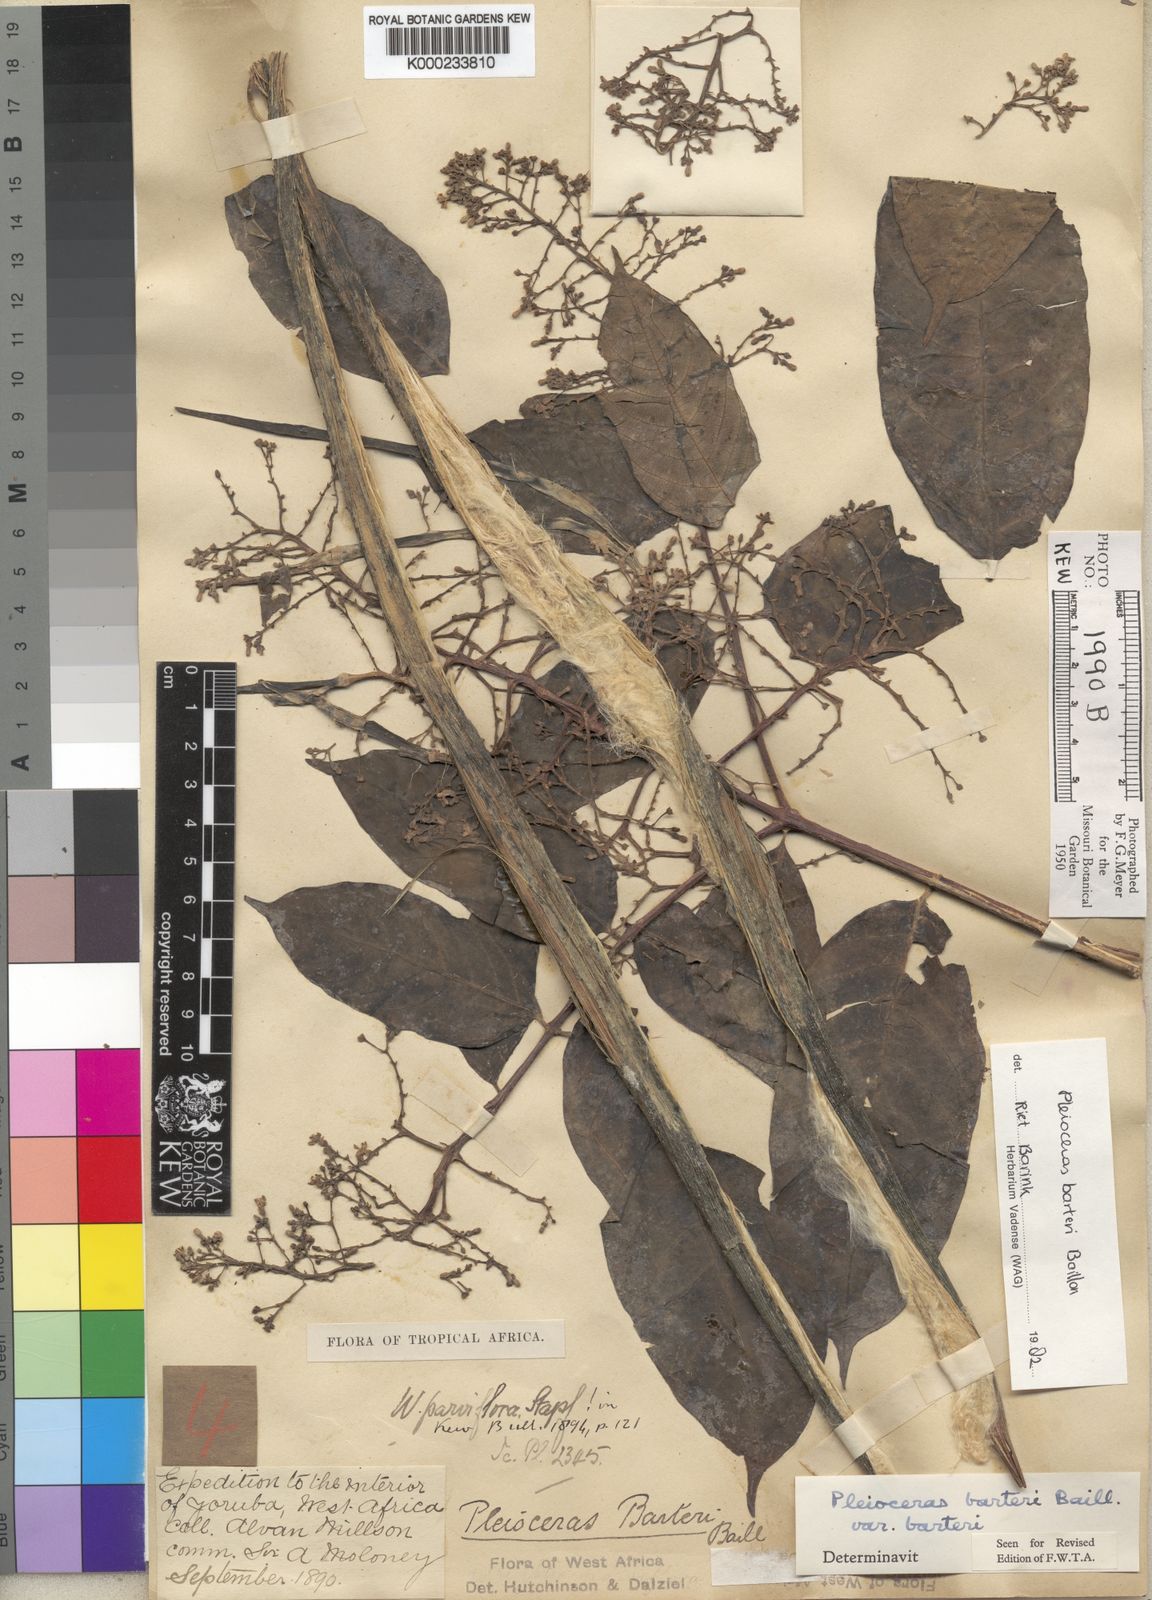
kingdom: Plantae
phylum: Tracheophyta
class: Magnoliopsida
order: Gentianales
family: Apocynaceae
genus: Pleioceras
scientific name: Pleioceras barteri
